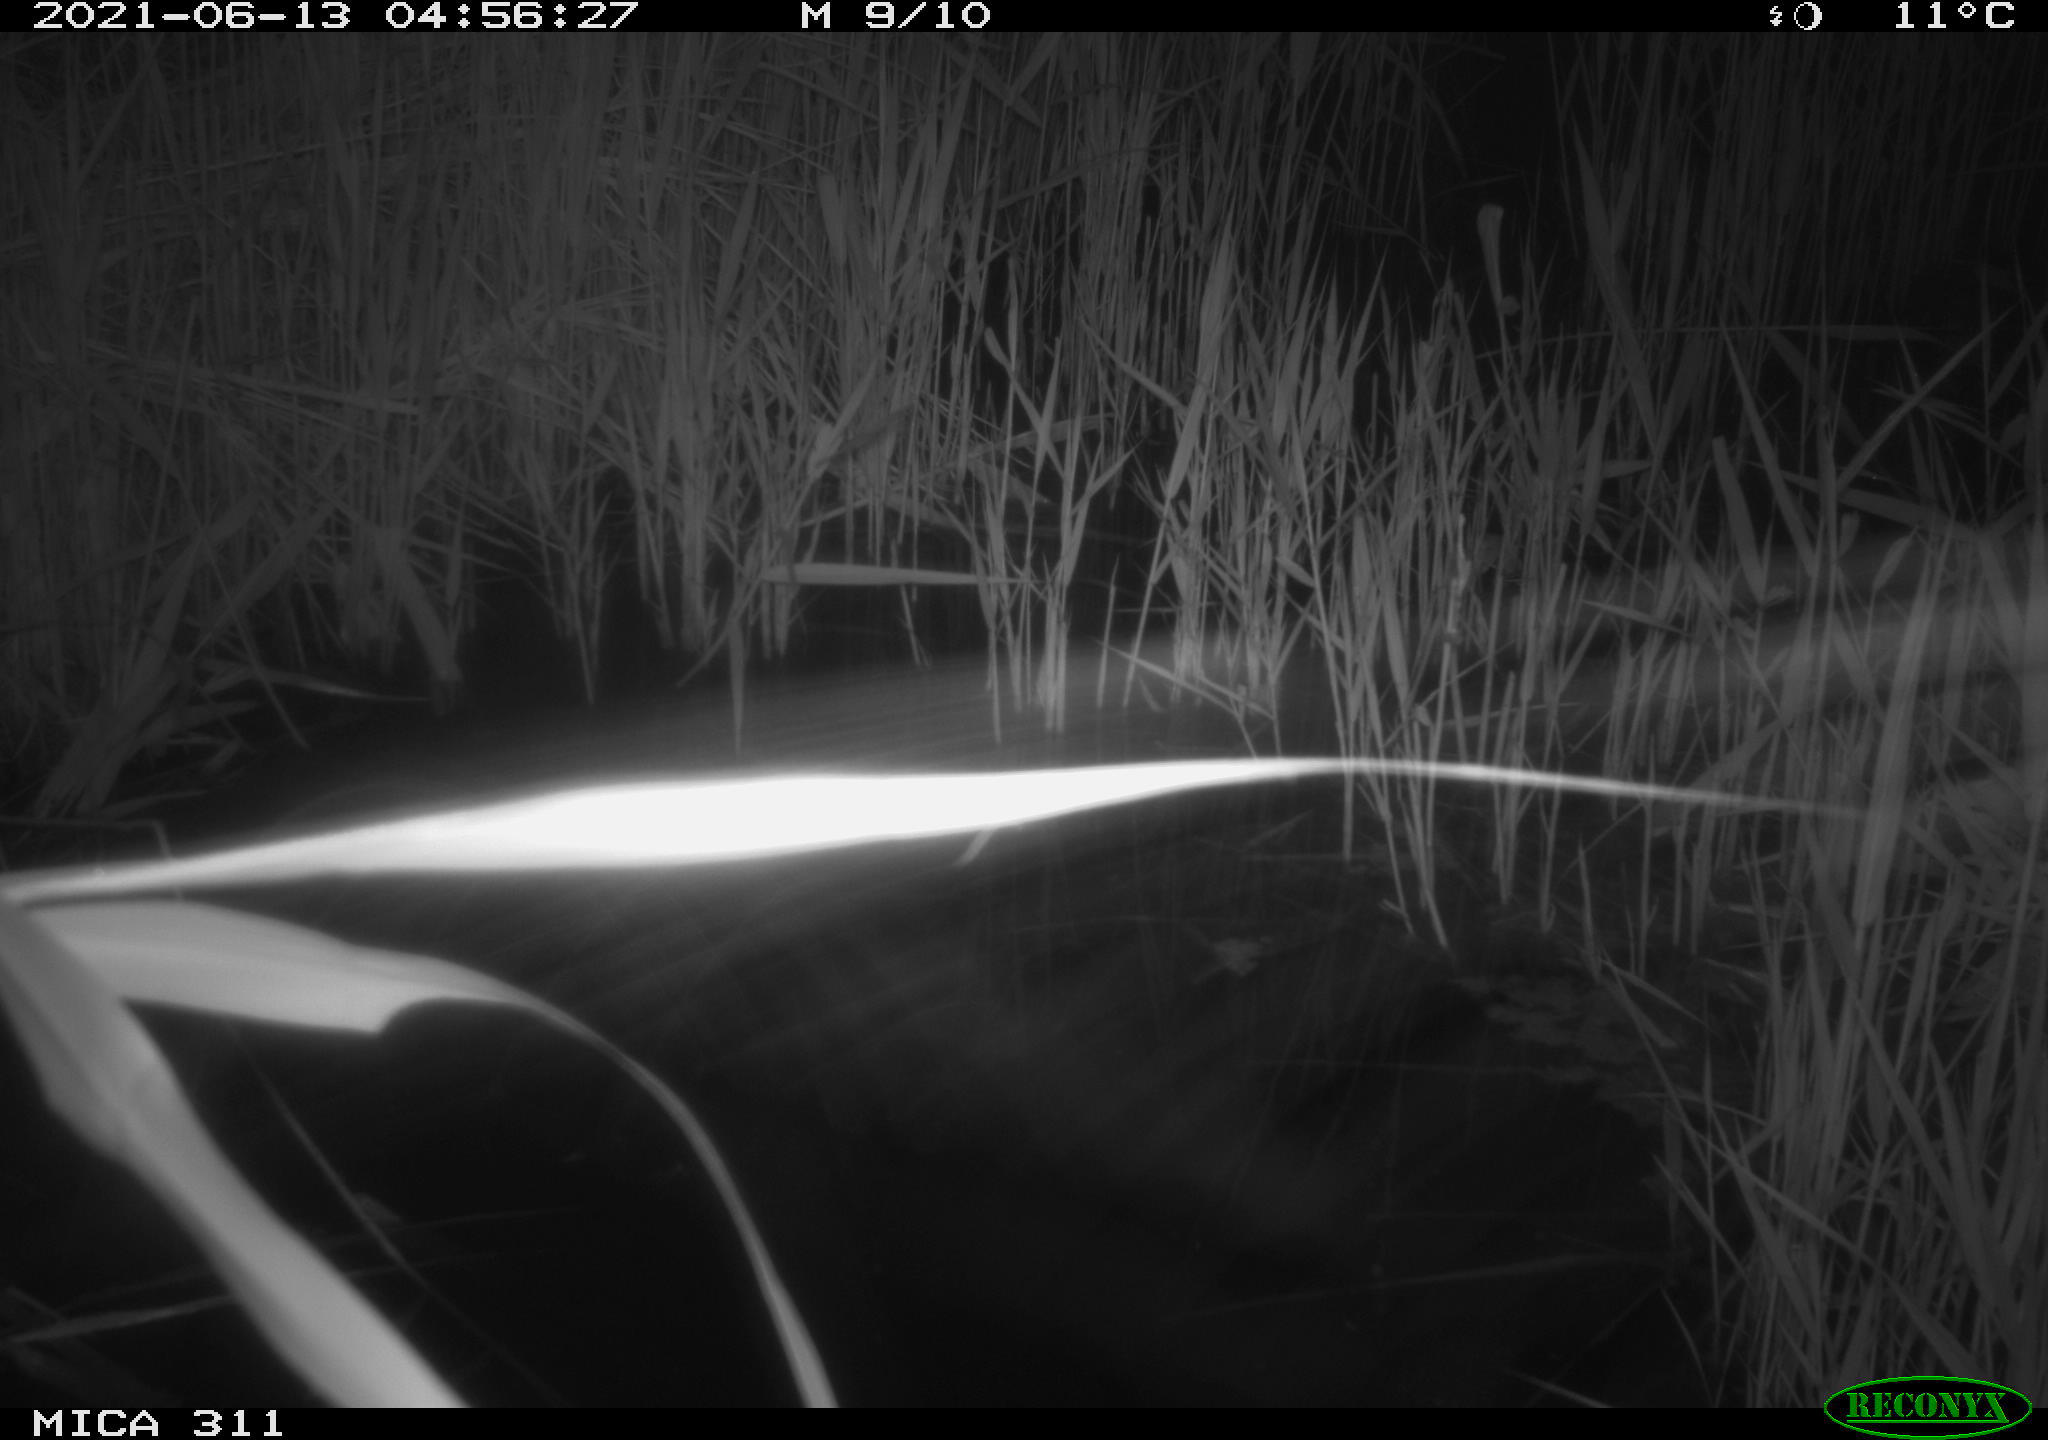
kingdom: Animalia
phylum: Chordata
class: Aves
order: Gruiformes
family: Rallidae
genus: Gallinula
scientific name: Gallinula chloropus
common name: Common moorhen
